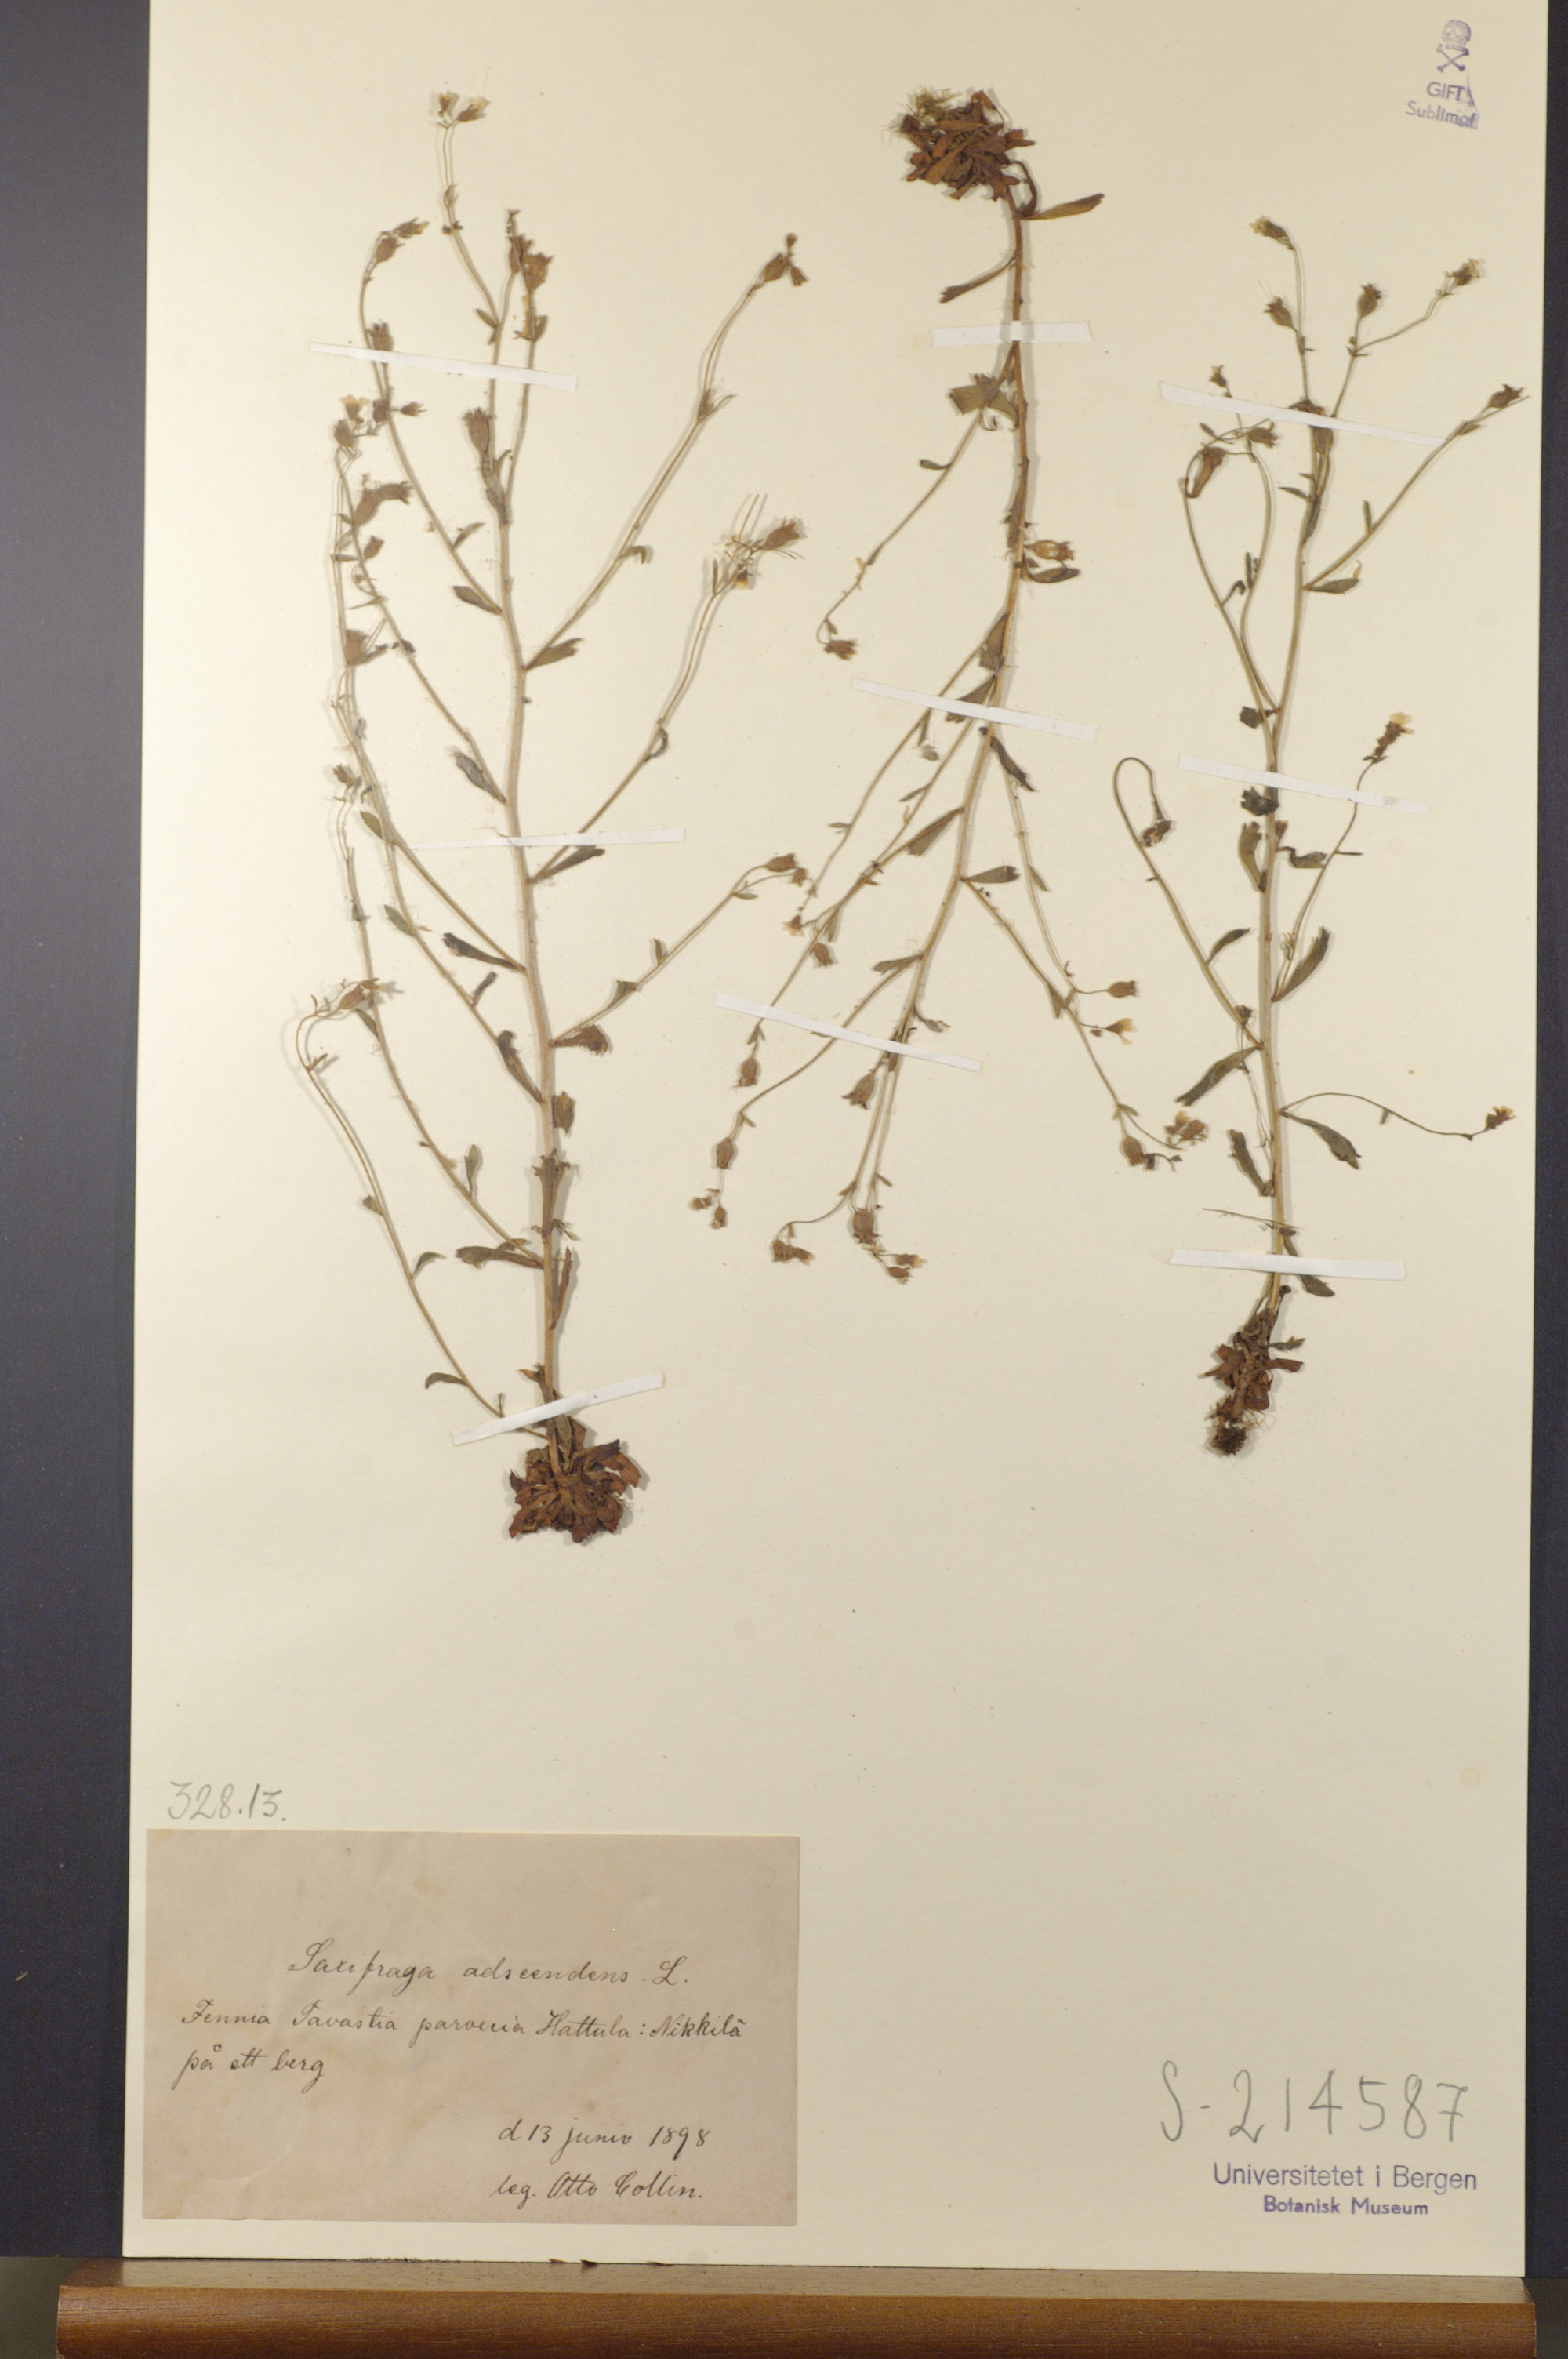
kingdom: Plantae
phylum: Tracheophyta
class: Magnoliopsida
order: Saxifragales
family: Saxifragaceae
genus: Saxifraga
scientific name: Saxifraga adscendens
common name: Ascending saxifrage
